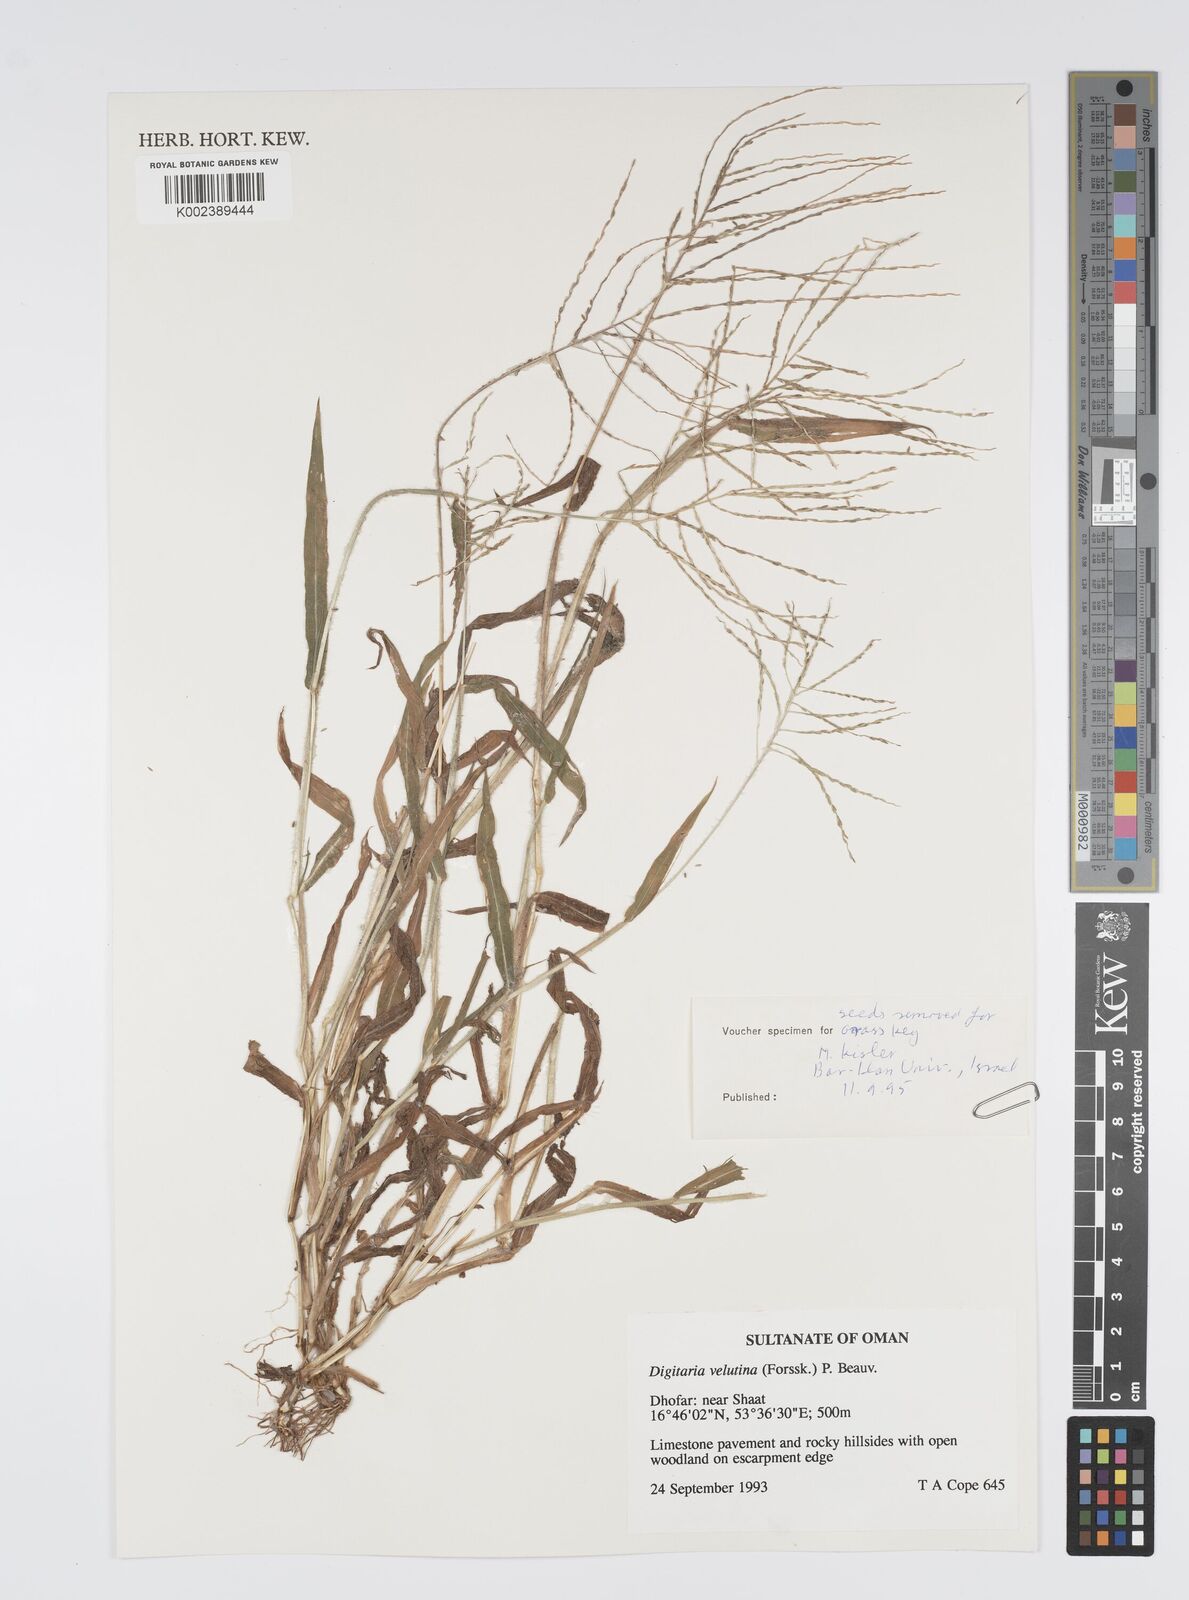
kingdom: Plantae
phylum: Tracheophyta
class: Liliopsida
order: Poales
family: Poaceae
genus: Digitaria
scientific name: Digitaria velutina
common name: Long-plume finger grass
